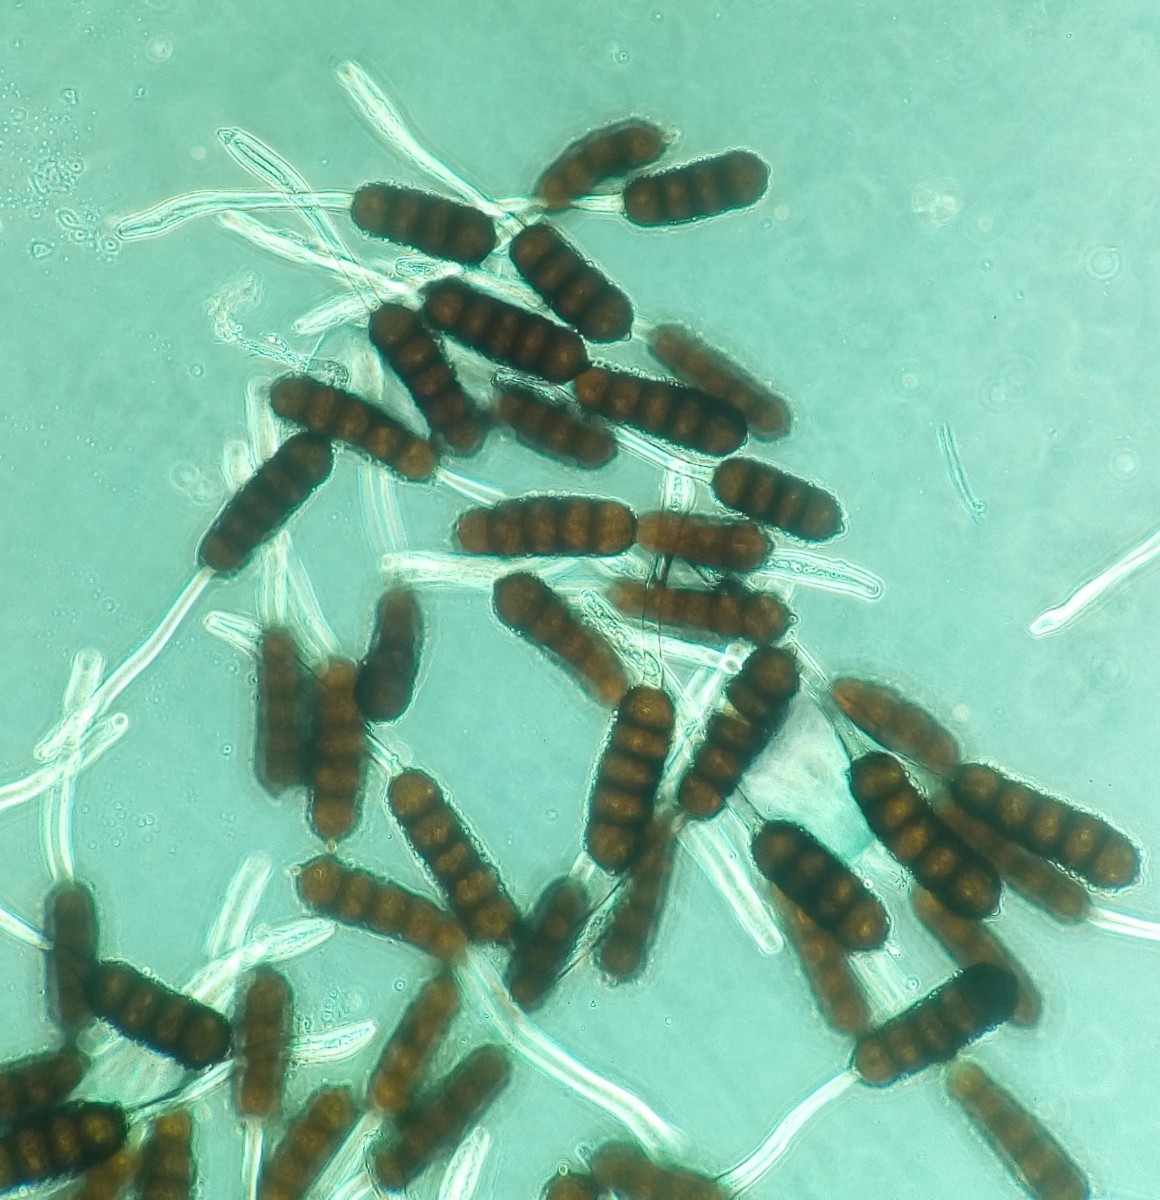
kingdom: Fungi
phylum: Basidiomycota
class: Pucciniomycetes
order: Pucciniales
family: Phragmidiaceae
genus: Phragmidium
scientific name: Phragmidium violaceum
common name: violet flercellerust
